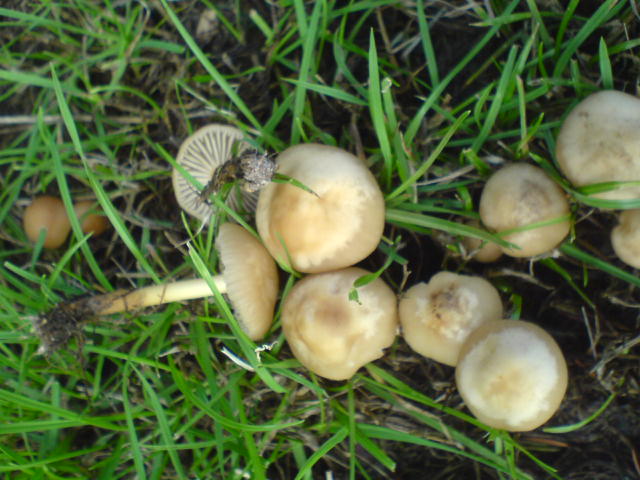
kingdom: Fungi
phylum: Basidiomycota
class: Agaricomycetes
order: Agaricales
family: Marasmiaceae
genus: Marasmius
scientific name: Marasmius oreades
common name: elledans-bruskhat
